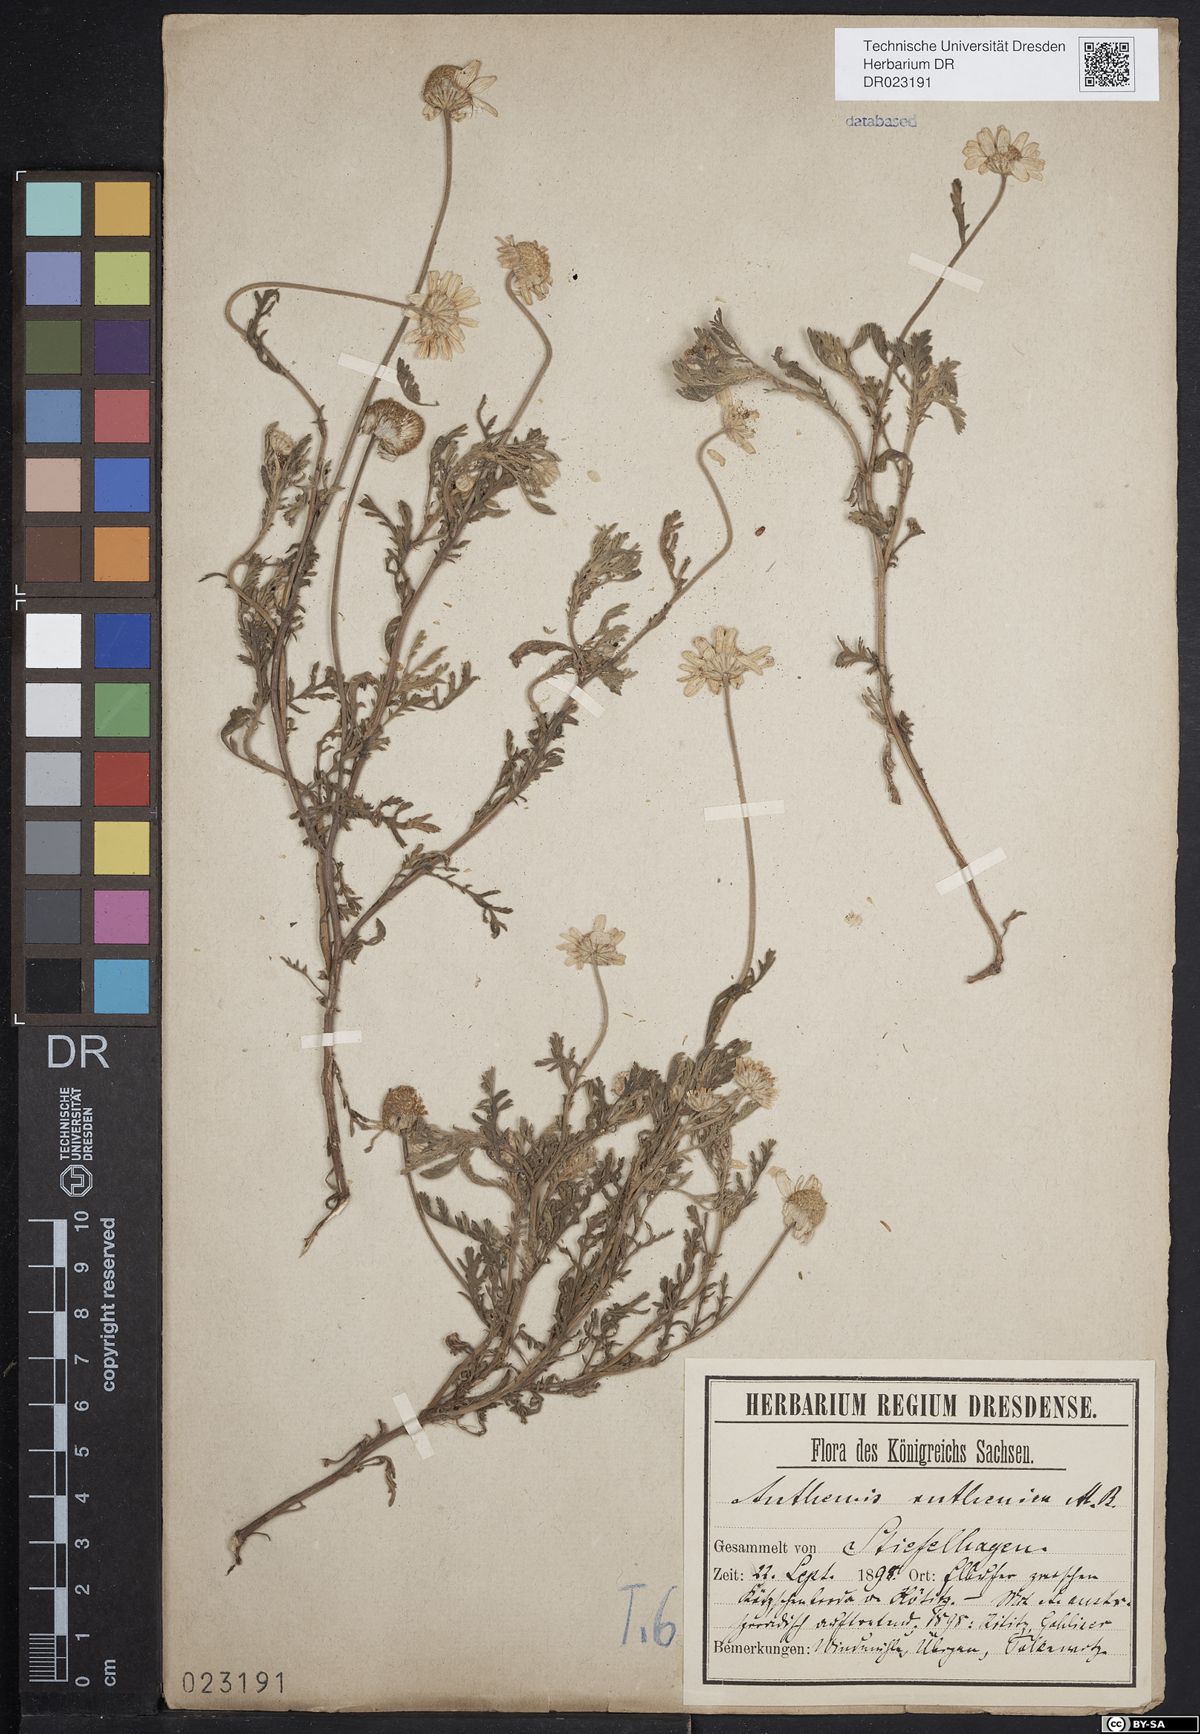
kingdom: Plantae
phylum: Tracheophyta
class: Magnoliopsida
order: Asterales
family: Asteraceae
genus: Anthemis
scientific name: Anthemis ruthenica
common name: Eastern chamomile
